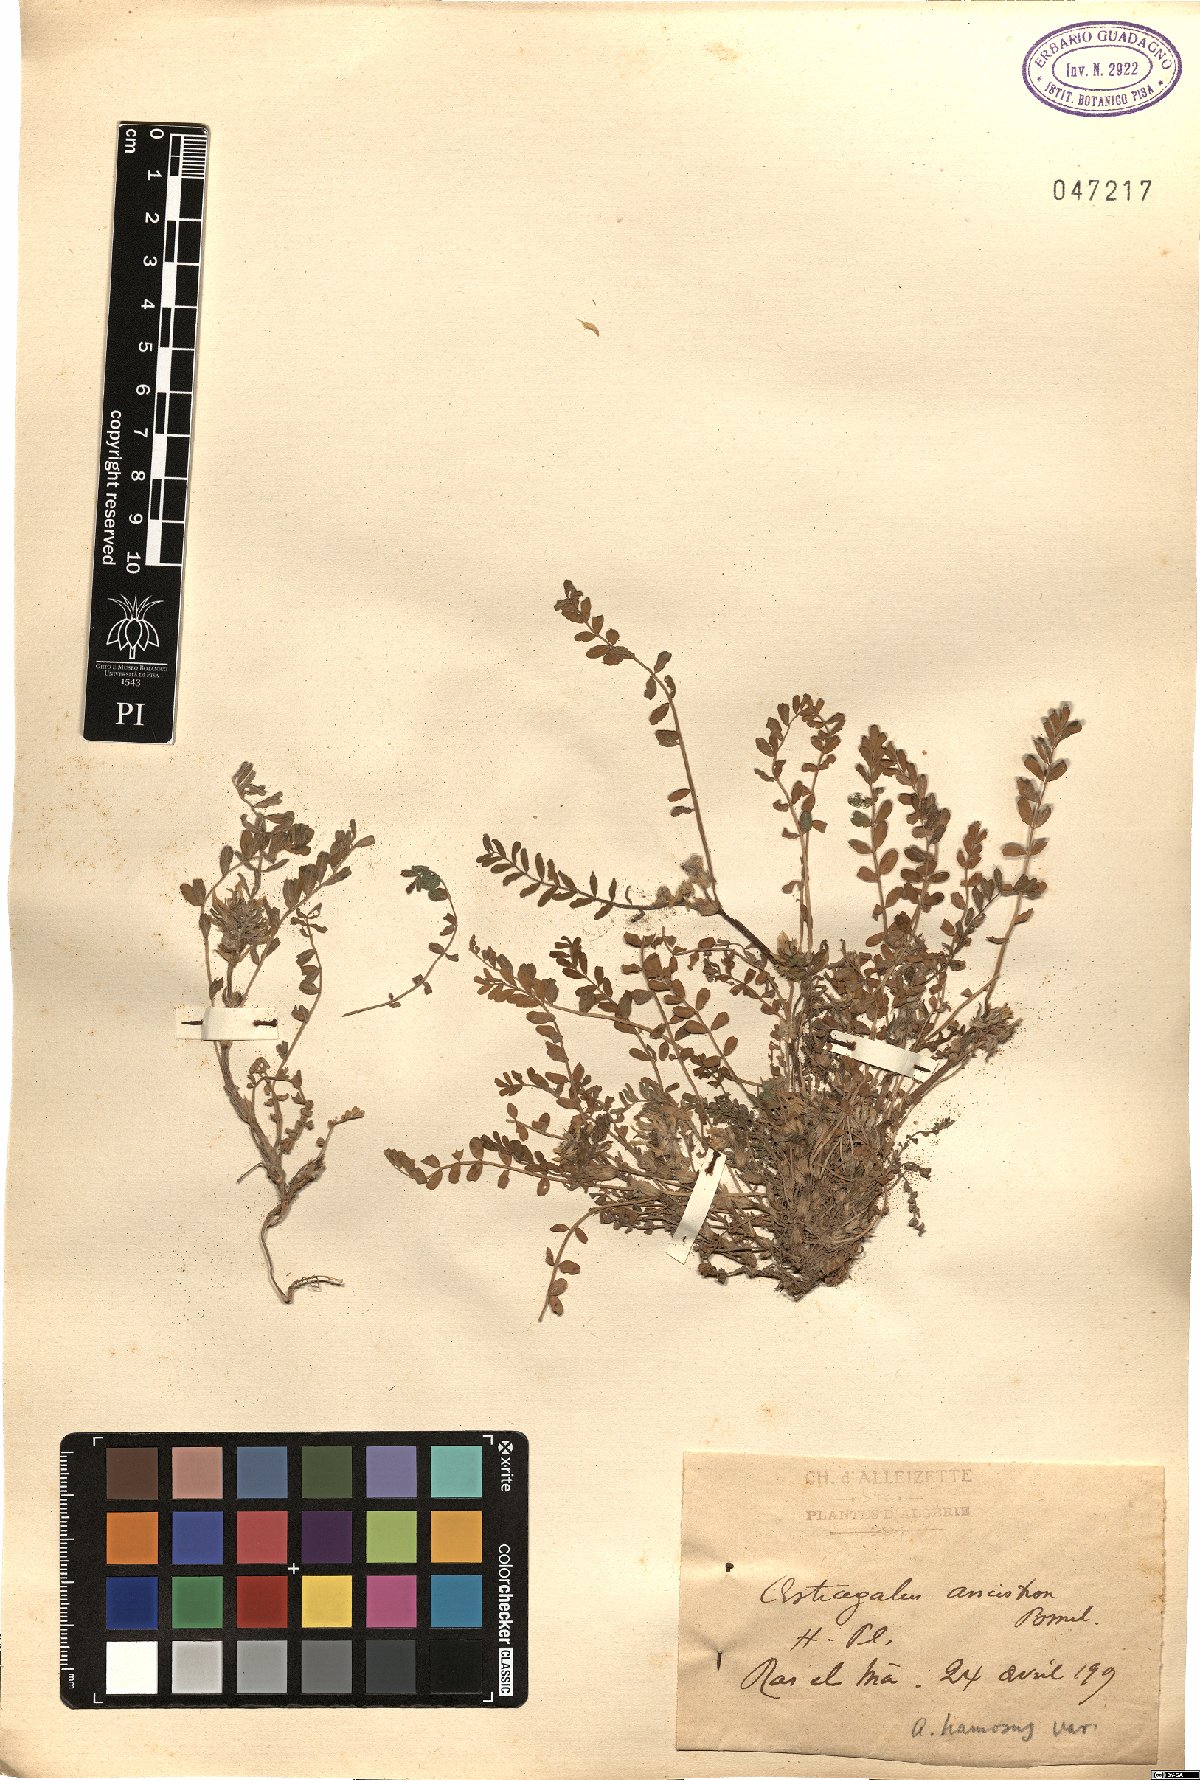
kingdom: Plantae
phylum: Tracheophyta
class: Magnoliopsida
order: Fabales
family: Fabaceae
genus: Astragalus
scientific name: Astragalus hamosus
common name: European milkvetch
